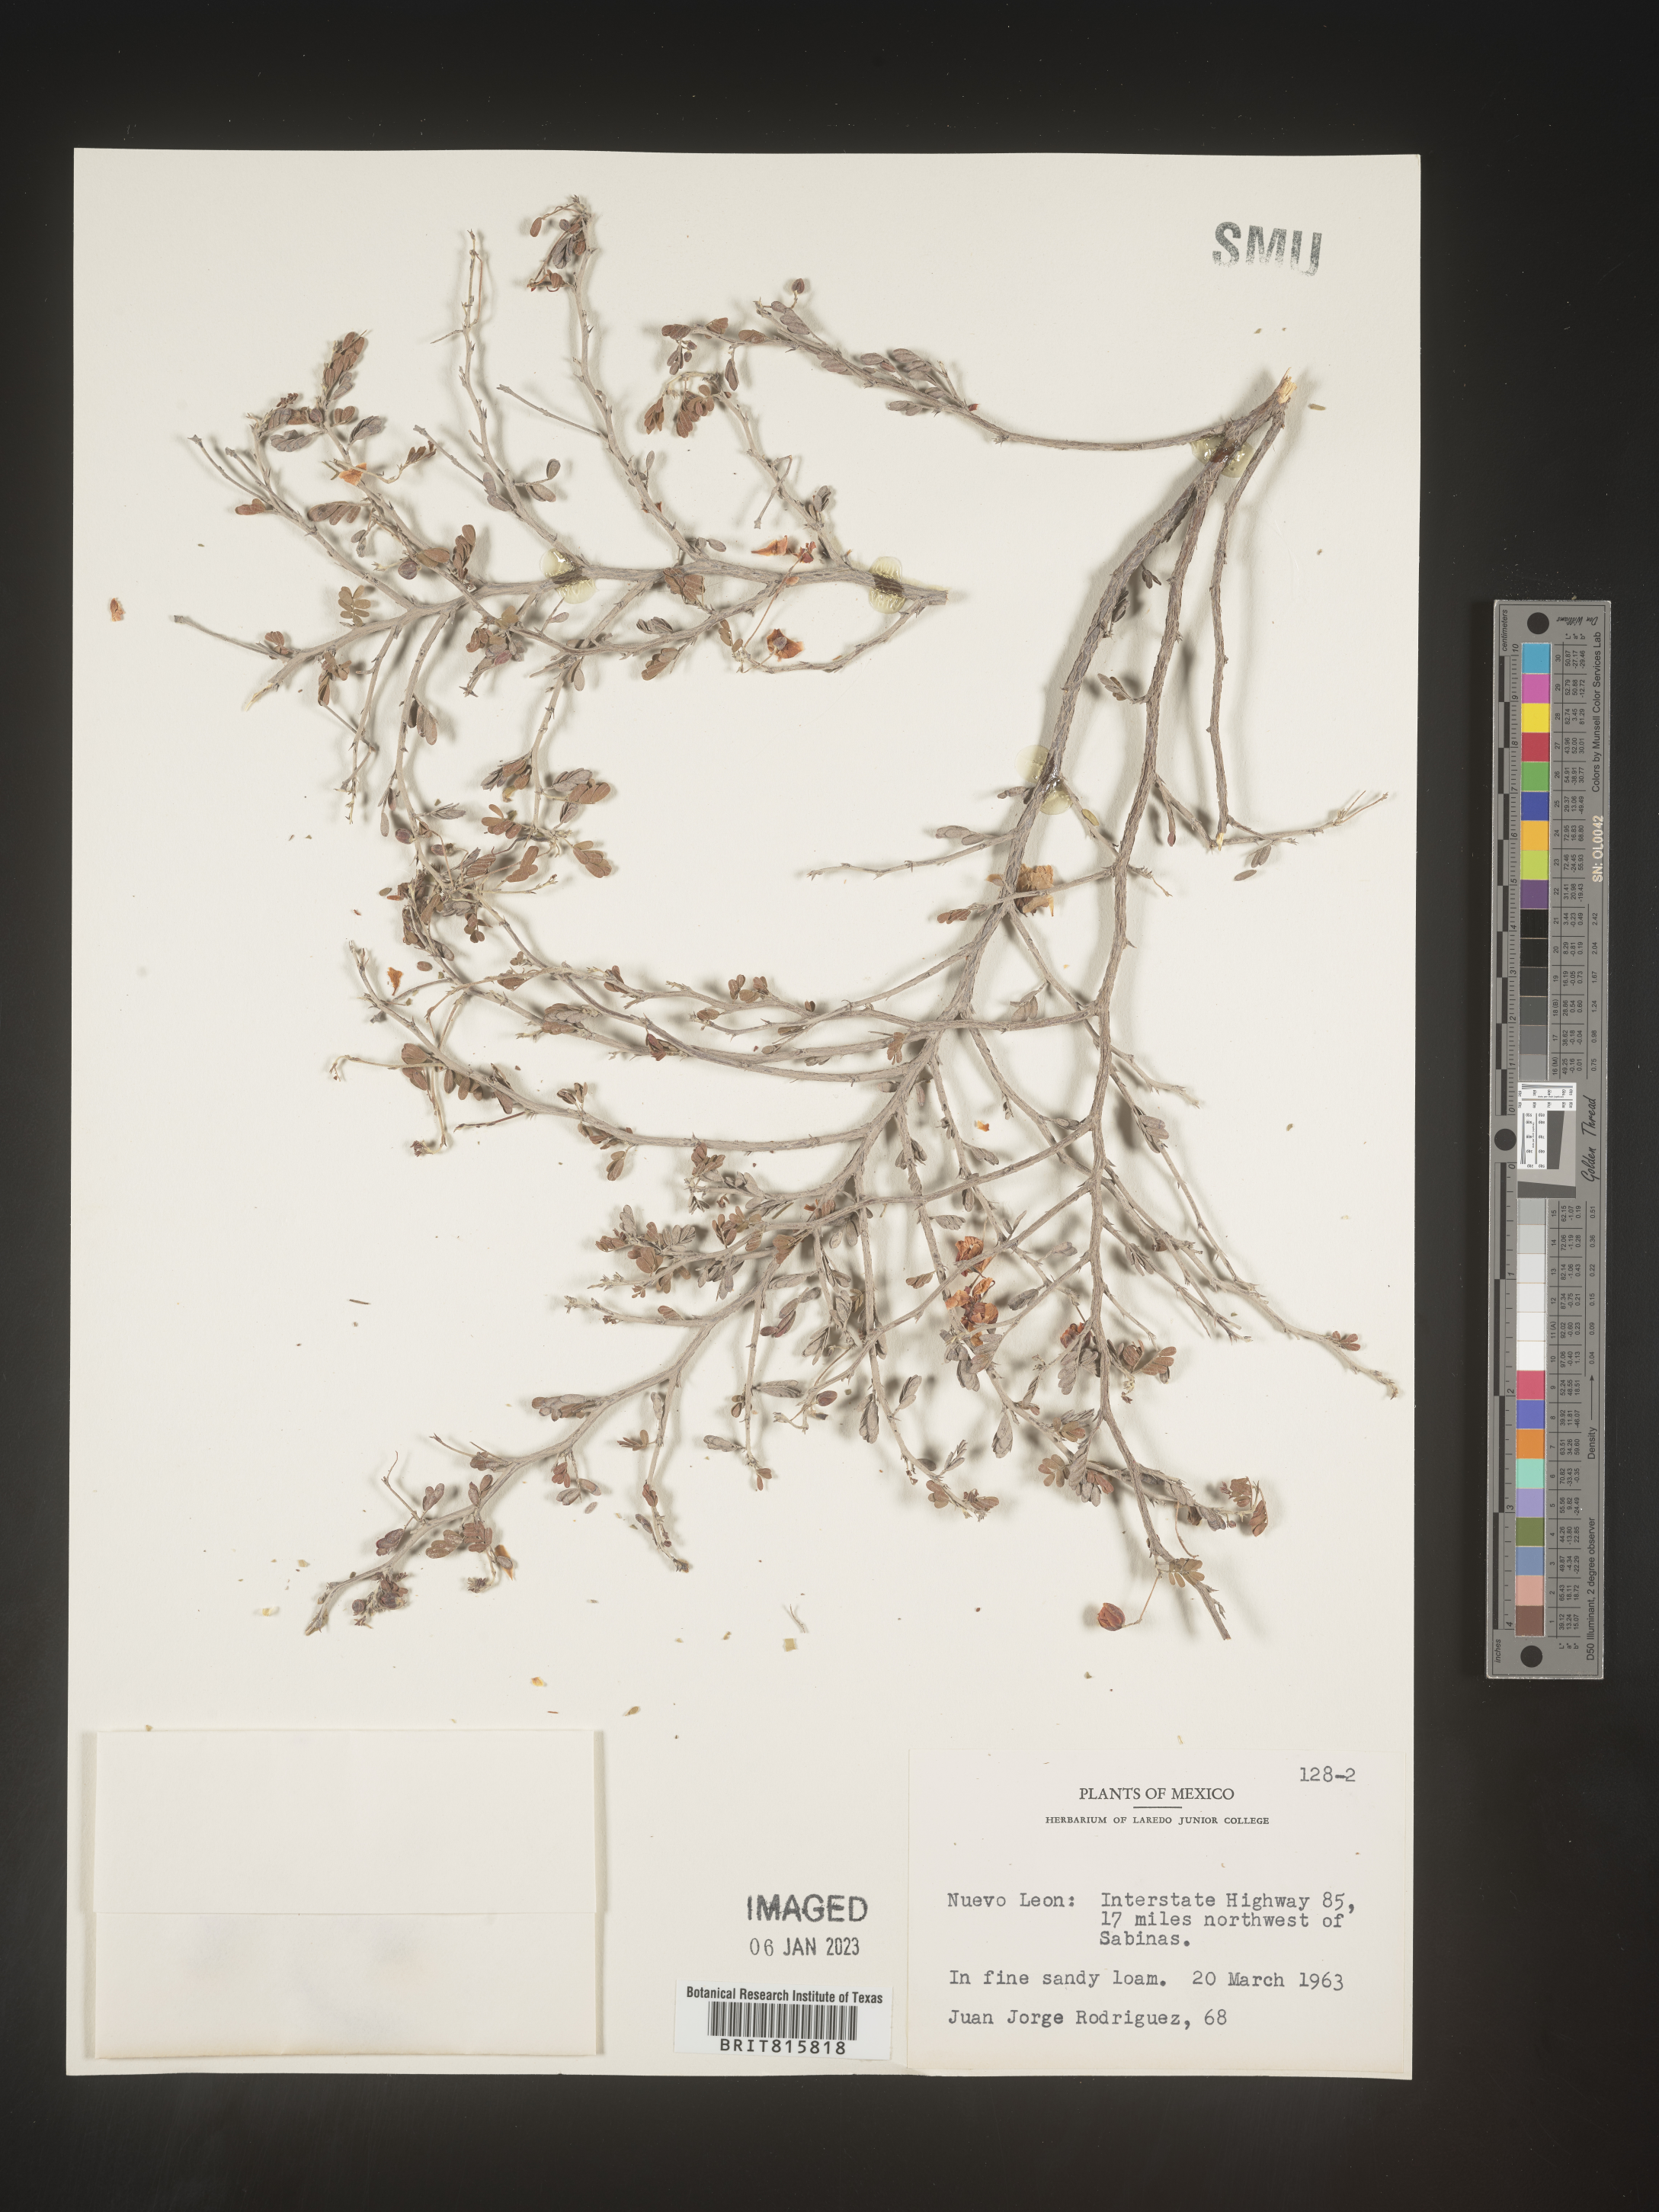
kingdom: Plantae
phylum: Chlorophyta
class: Chlorophyceae
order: Volvocales
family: Chlamydomonadaceae
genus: Cercidium
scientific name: Cercidium
